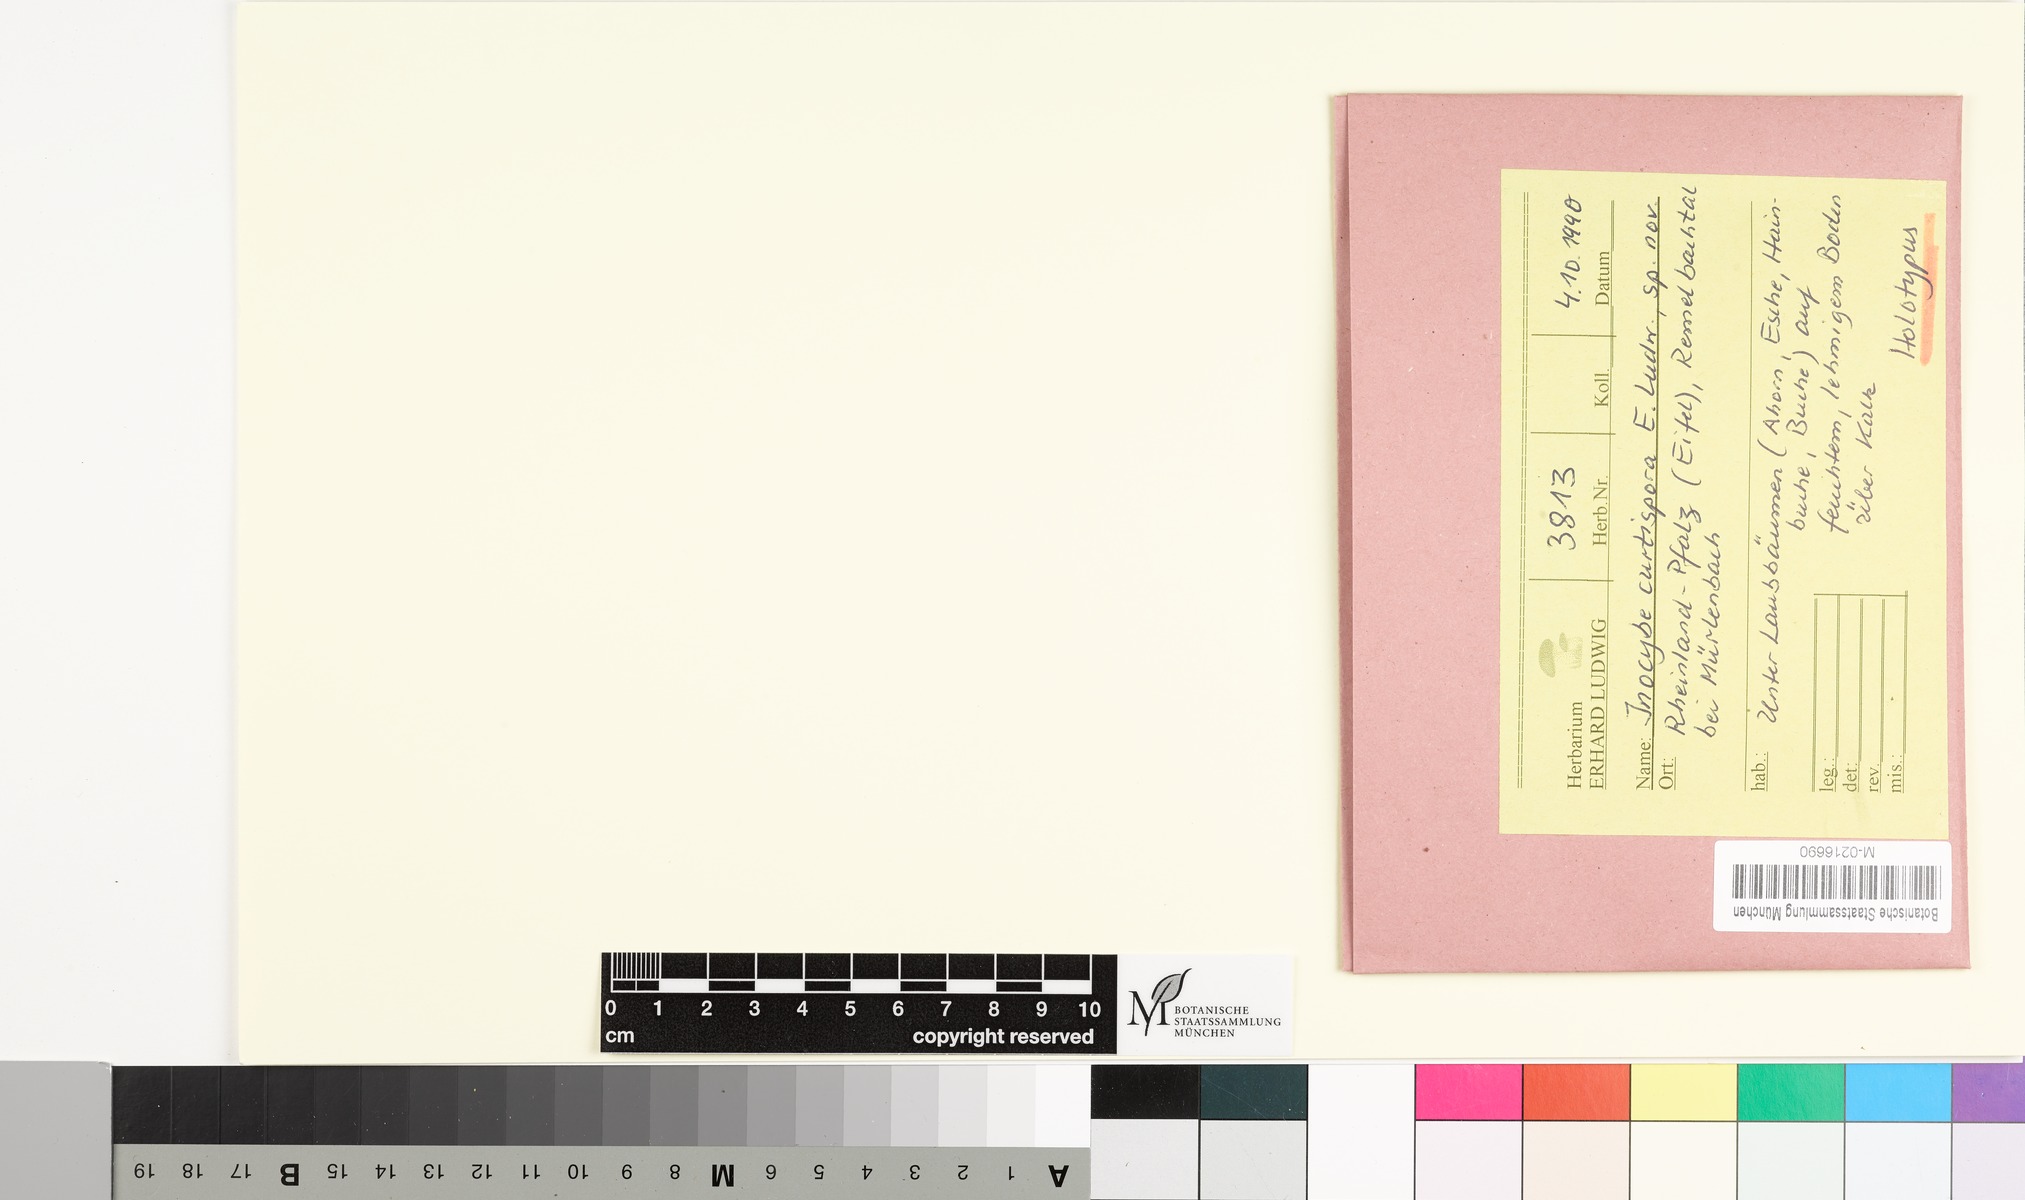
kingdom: Fungi
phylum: Basidiomycota
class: Agaricomycetes
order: Agaricales
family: Inocybaceae
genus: Inocybe
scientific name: Inocybe curtispora
